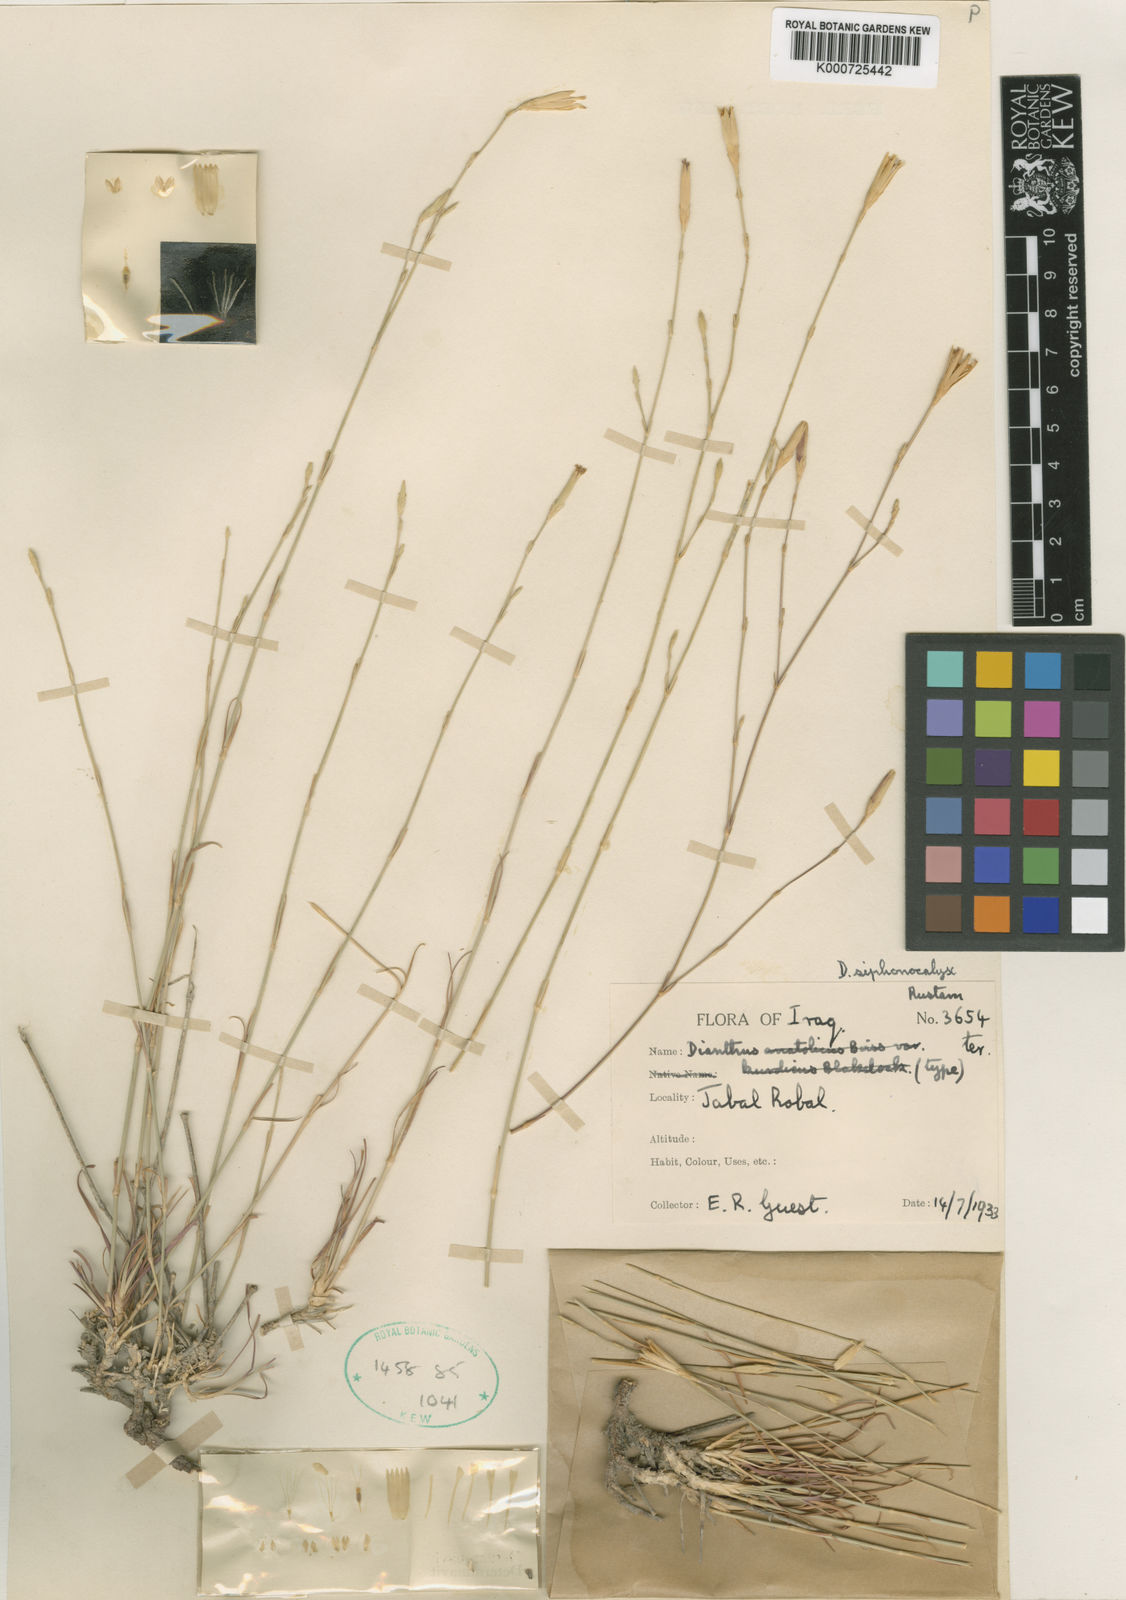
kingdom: Plantae
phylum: Tracheophyta
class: Magnoliopsida
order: Caryophyllales
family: Caryophyllaceae
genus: Dianthus
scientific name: Dianthus siphonocalyx
